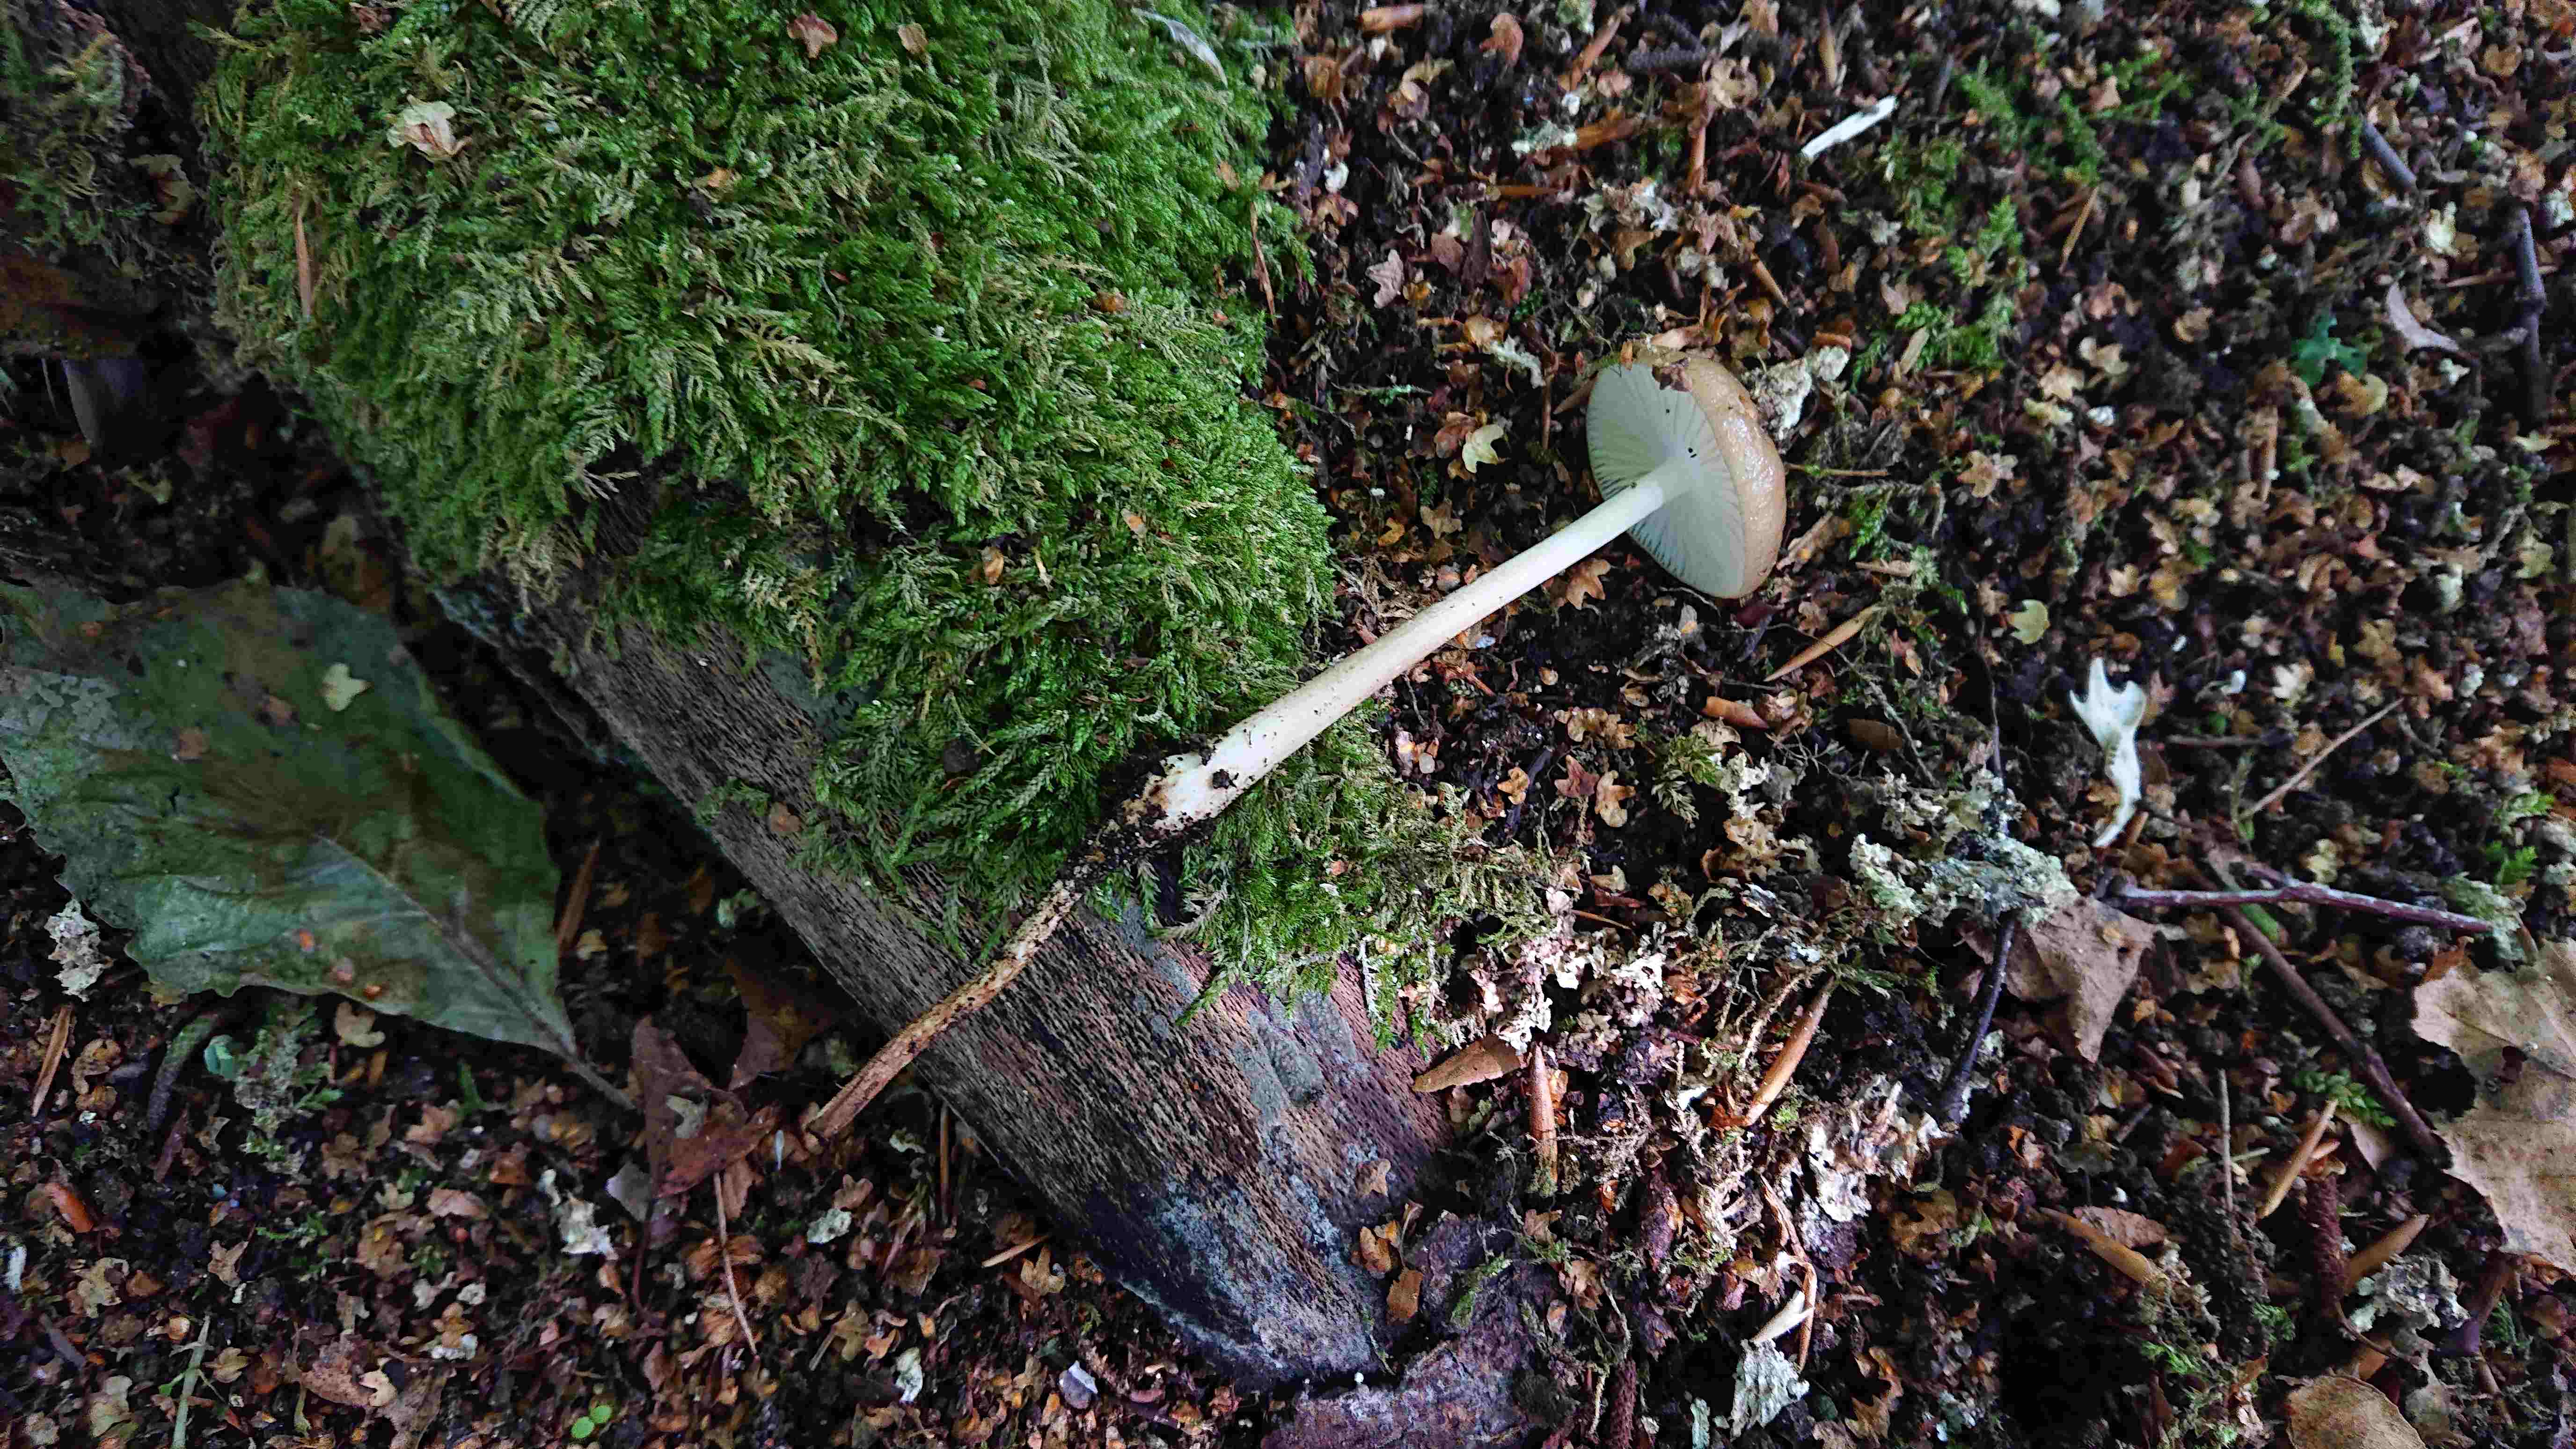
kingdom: Fungi
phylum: Basidiomycota
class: Agaricomycetes
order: Agaricales
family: Physalacriaceae
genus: Hymenopellis
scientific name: Hymenopellis radicata
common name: almindelig pælerodshat
